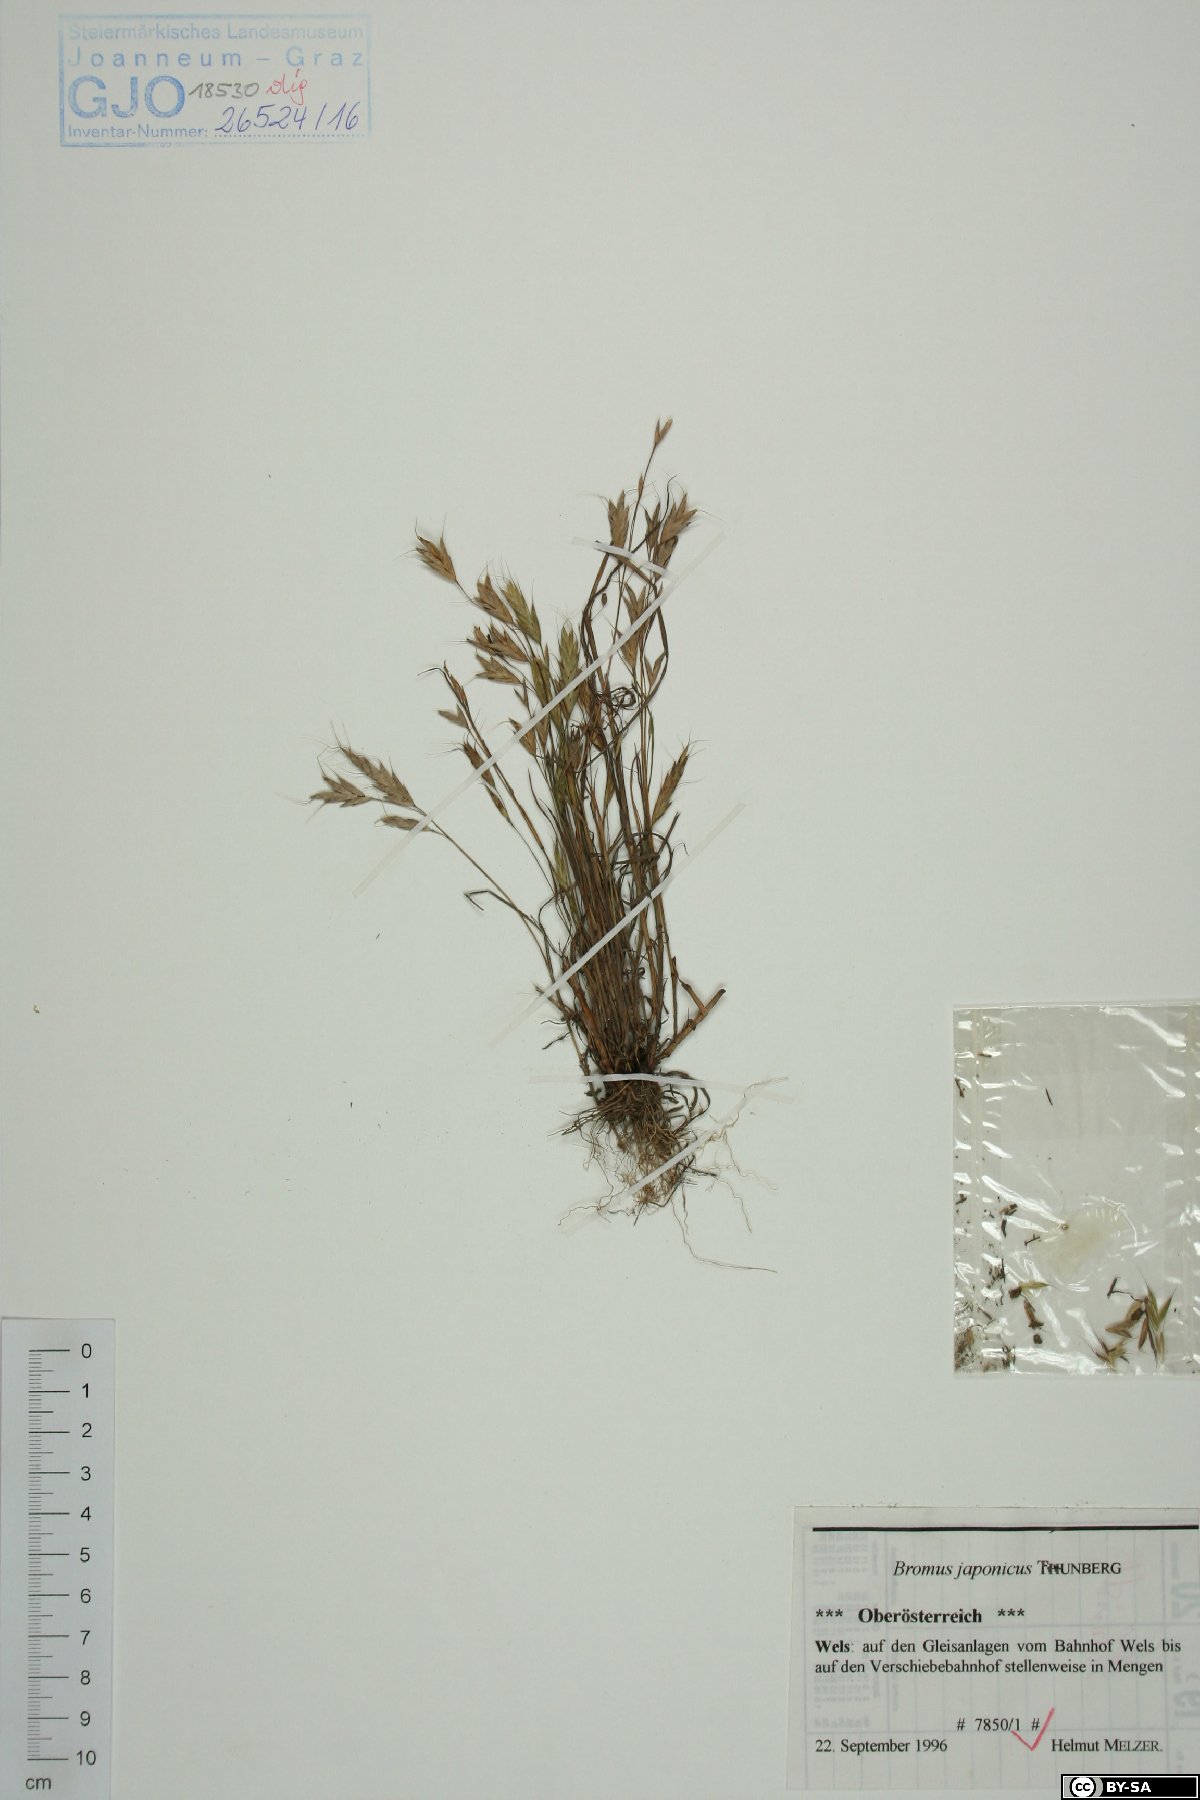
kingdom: Plantae
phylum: Tracheophyta
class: Liliopsida
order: Poales
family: Poaceae
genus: Bromus
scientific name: Bromus japonicus
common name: Japanese brome
